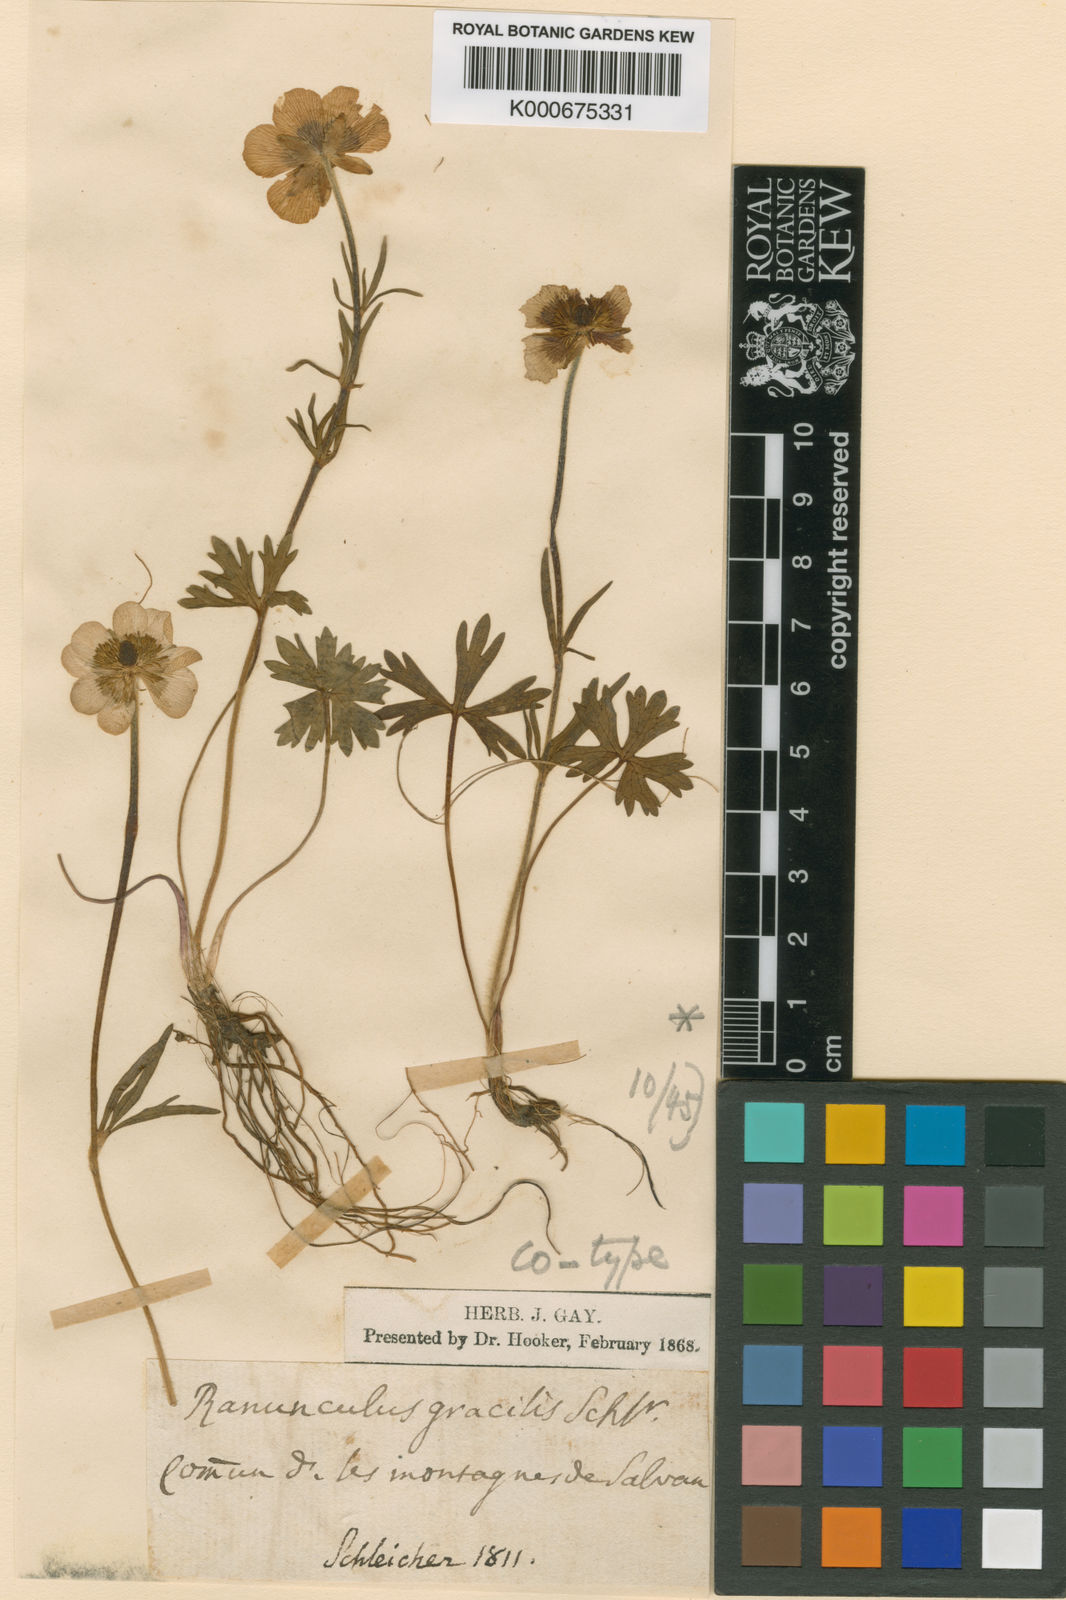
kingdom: Plantae
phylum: Tracheophyta
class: Magnoliopsida
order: Ranunculales
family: Ranunculaceae
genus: Ranunculus
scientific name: Ranunculus carinthiacus
